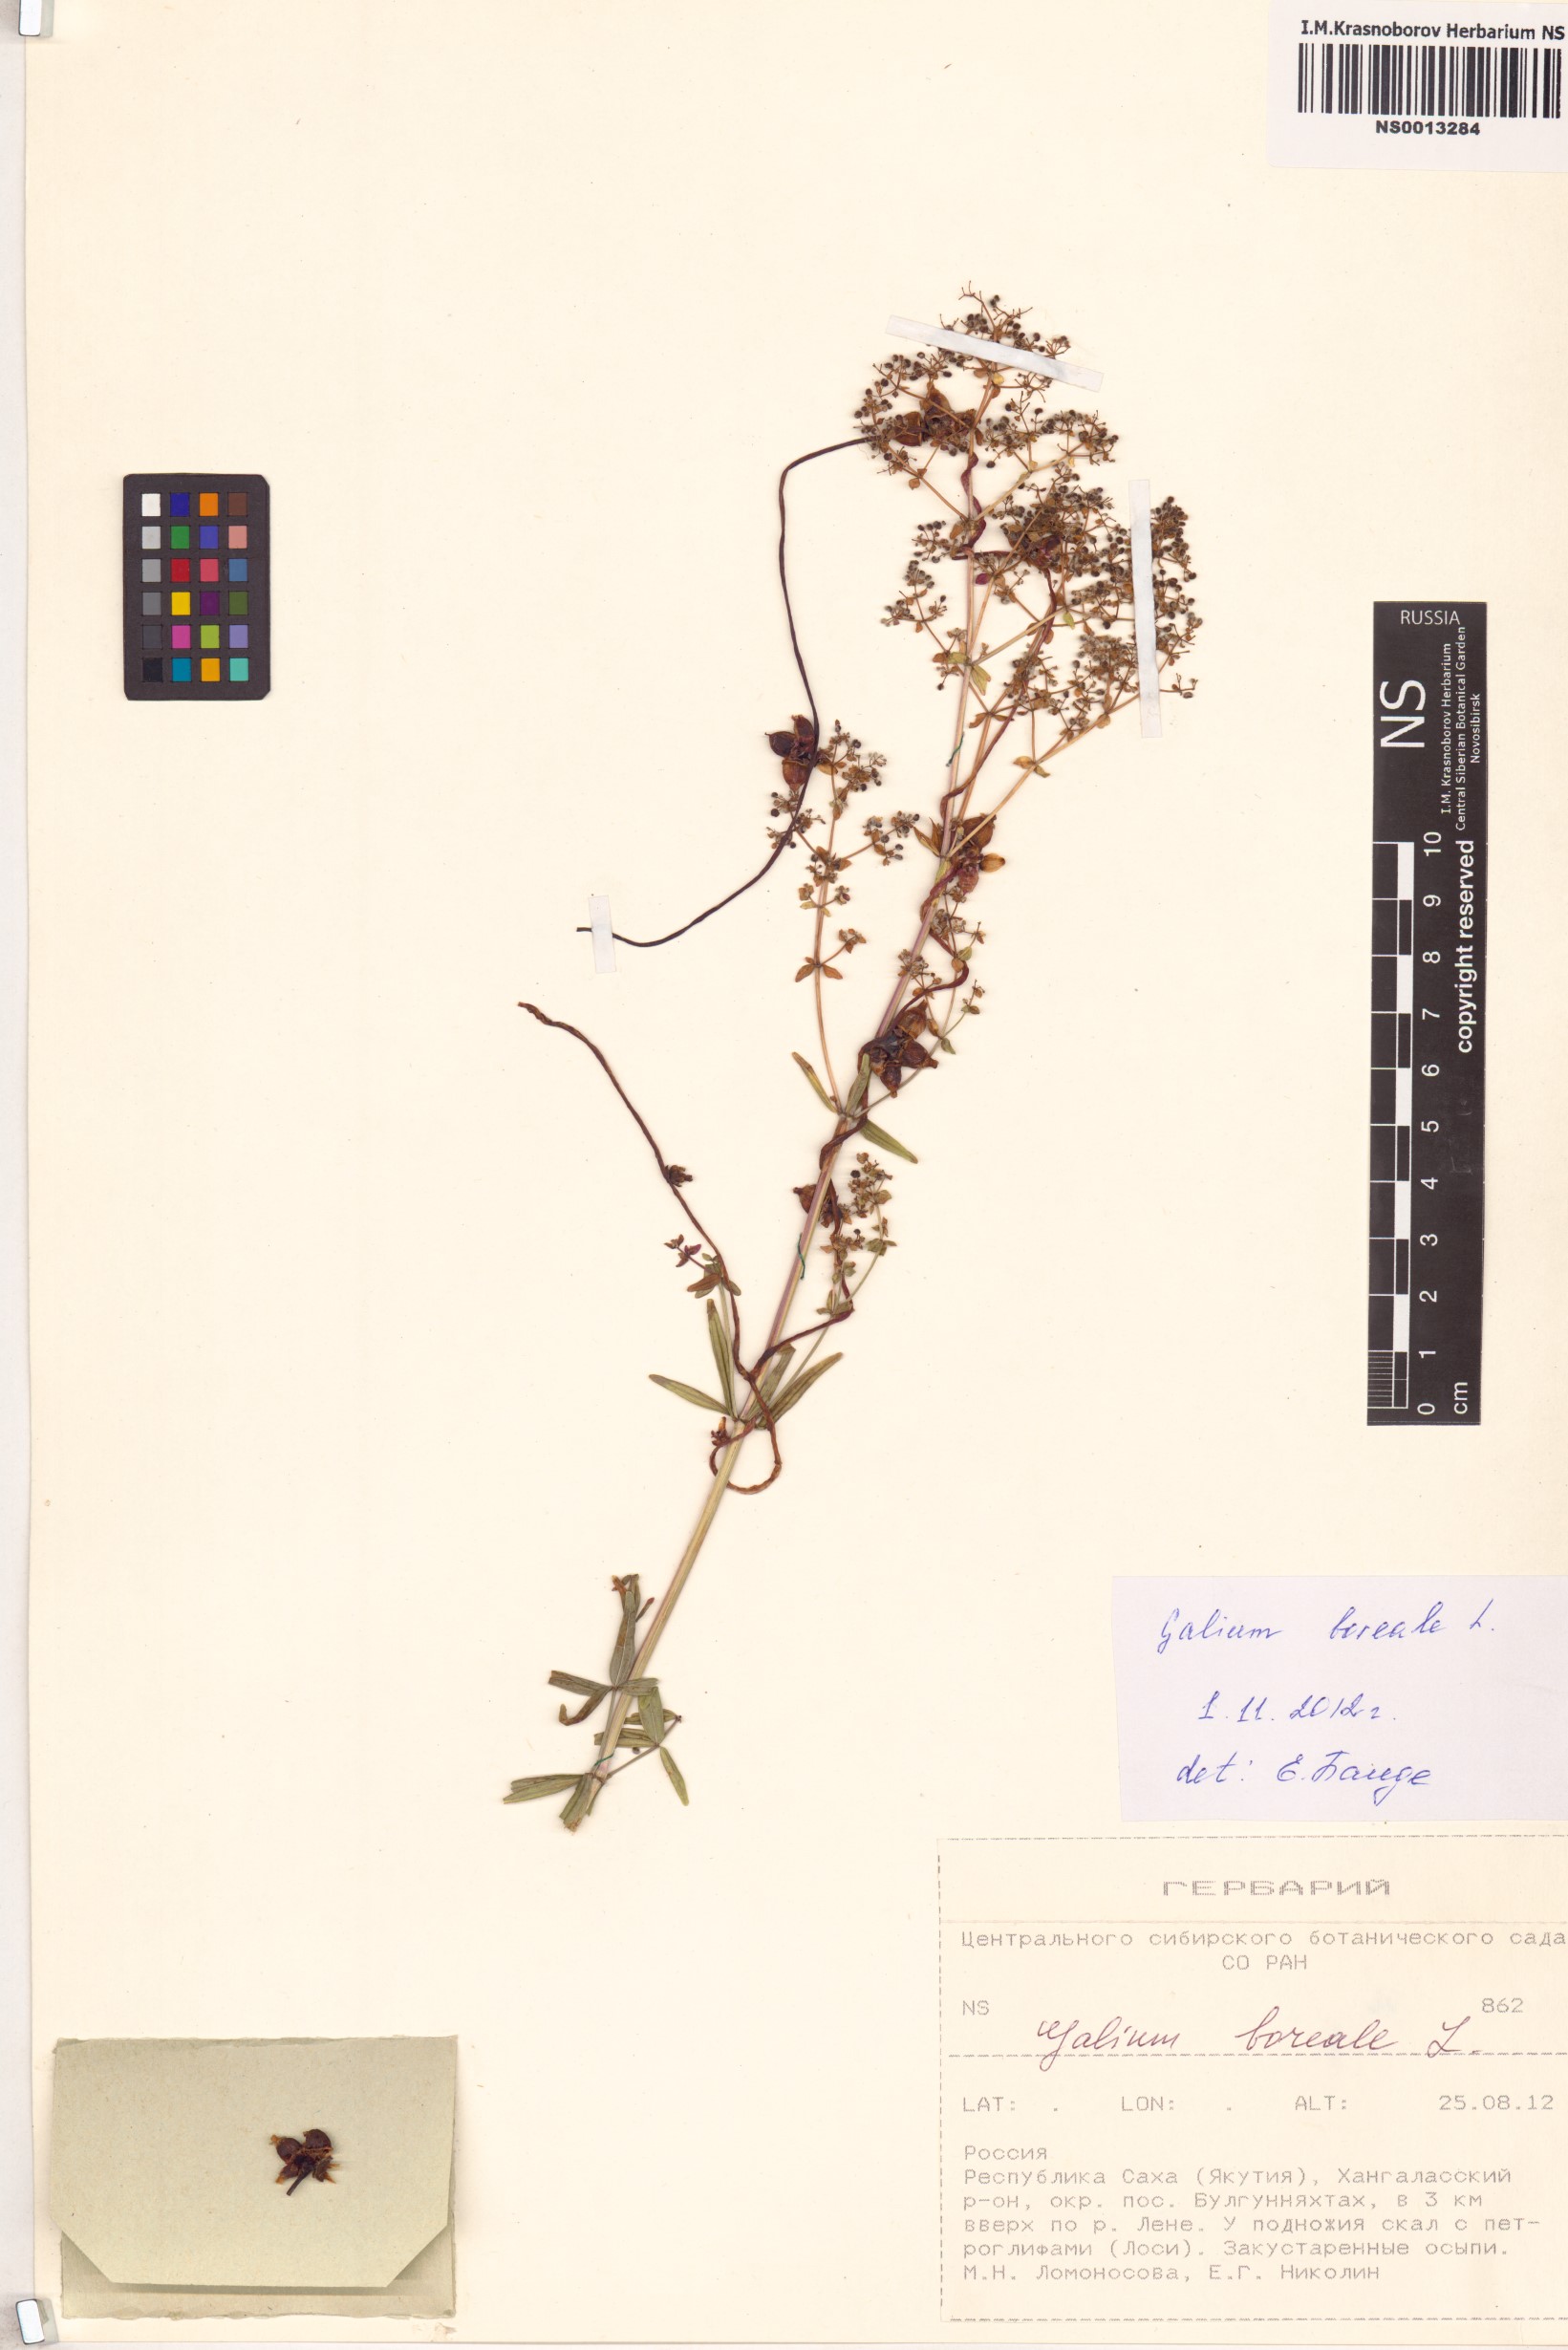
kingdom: Plantae
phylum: Tracheophyta
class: Magnoliopsida
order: Gentianales
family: Rubiaceae
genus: Galium
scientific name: Galium boreale
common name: Northern bedstraw
